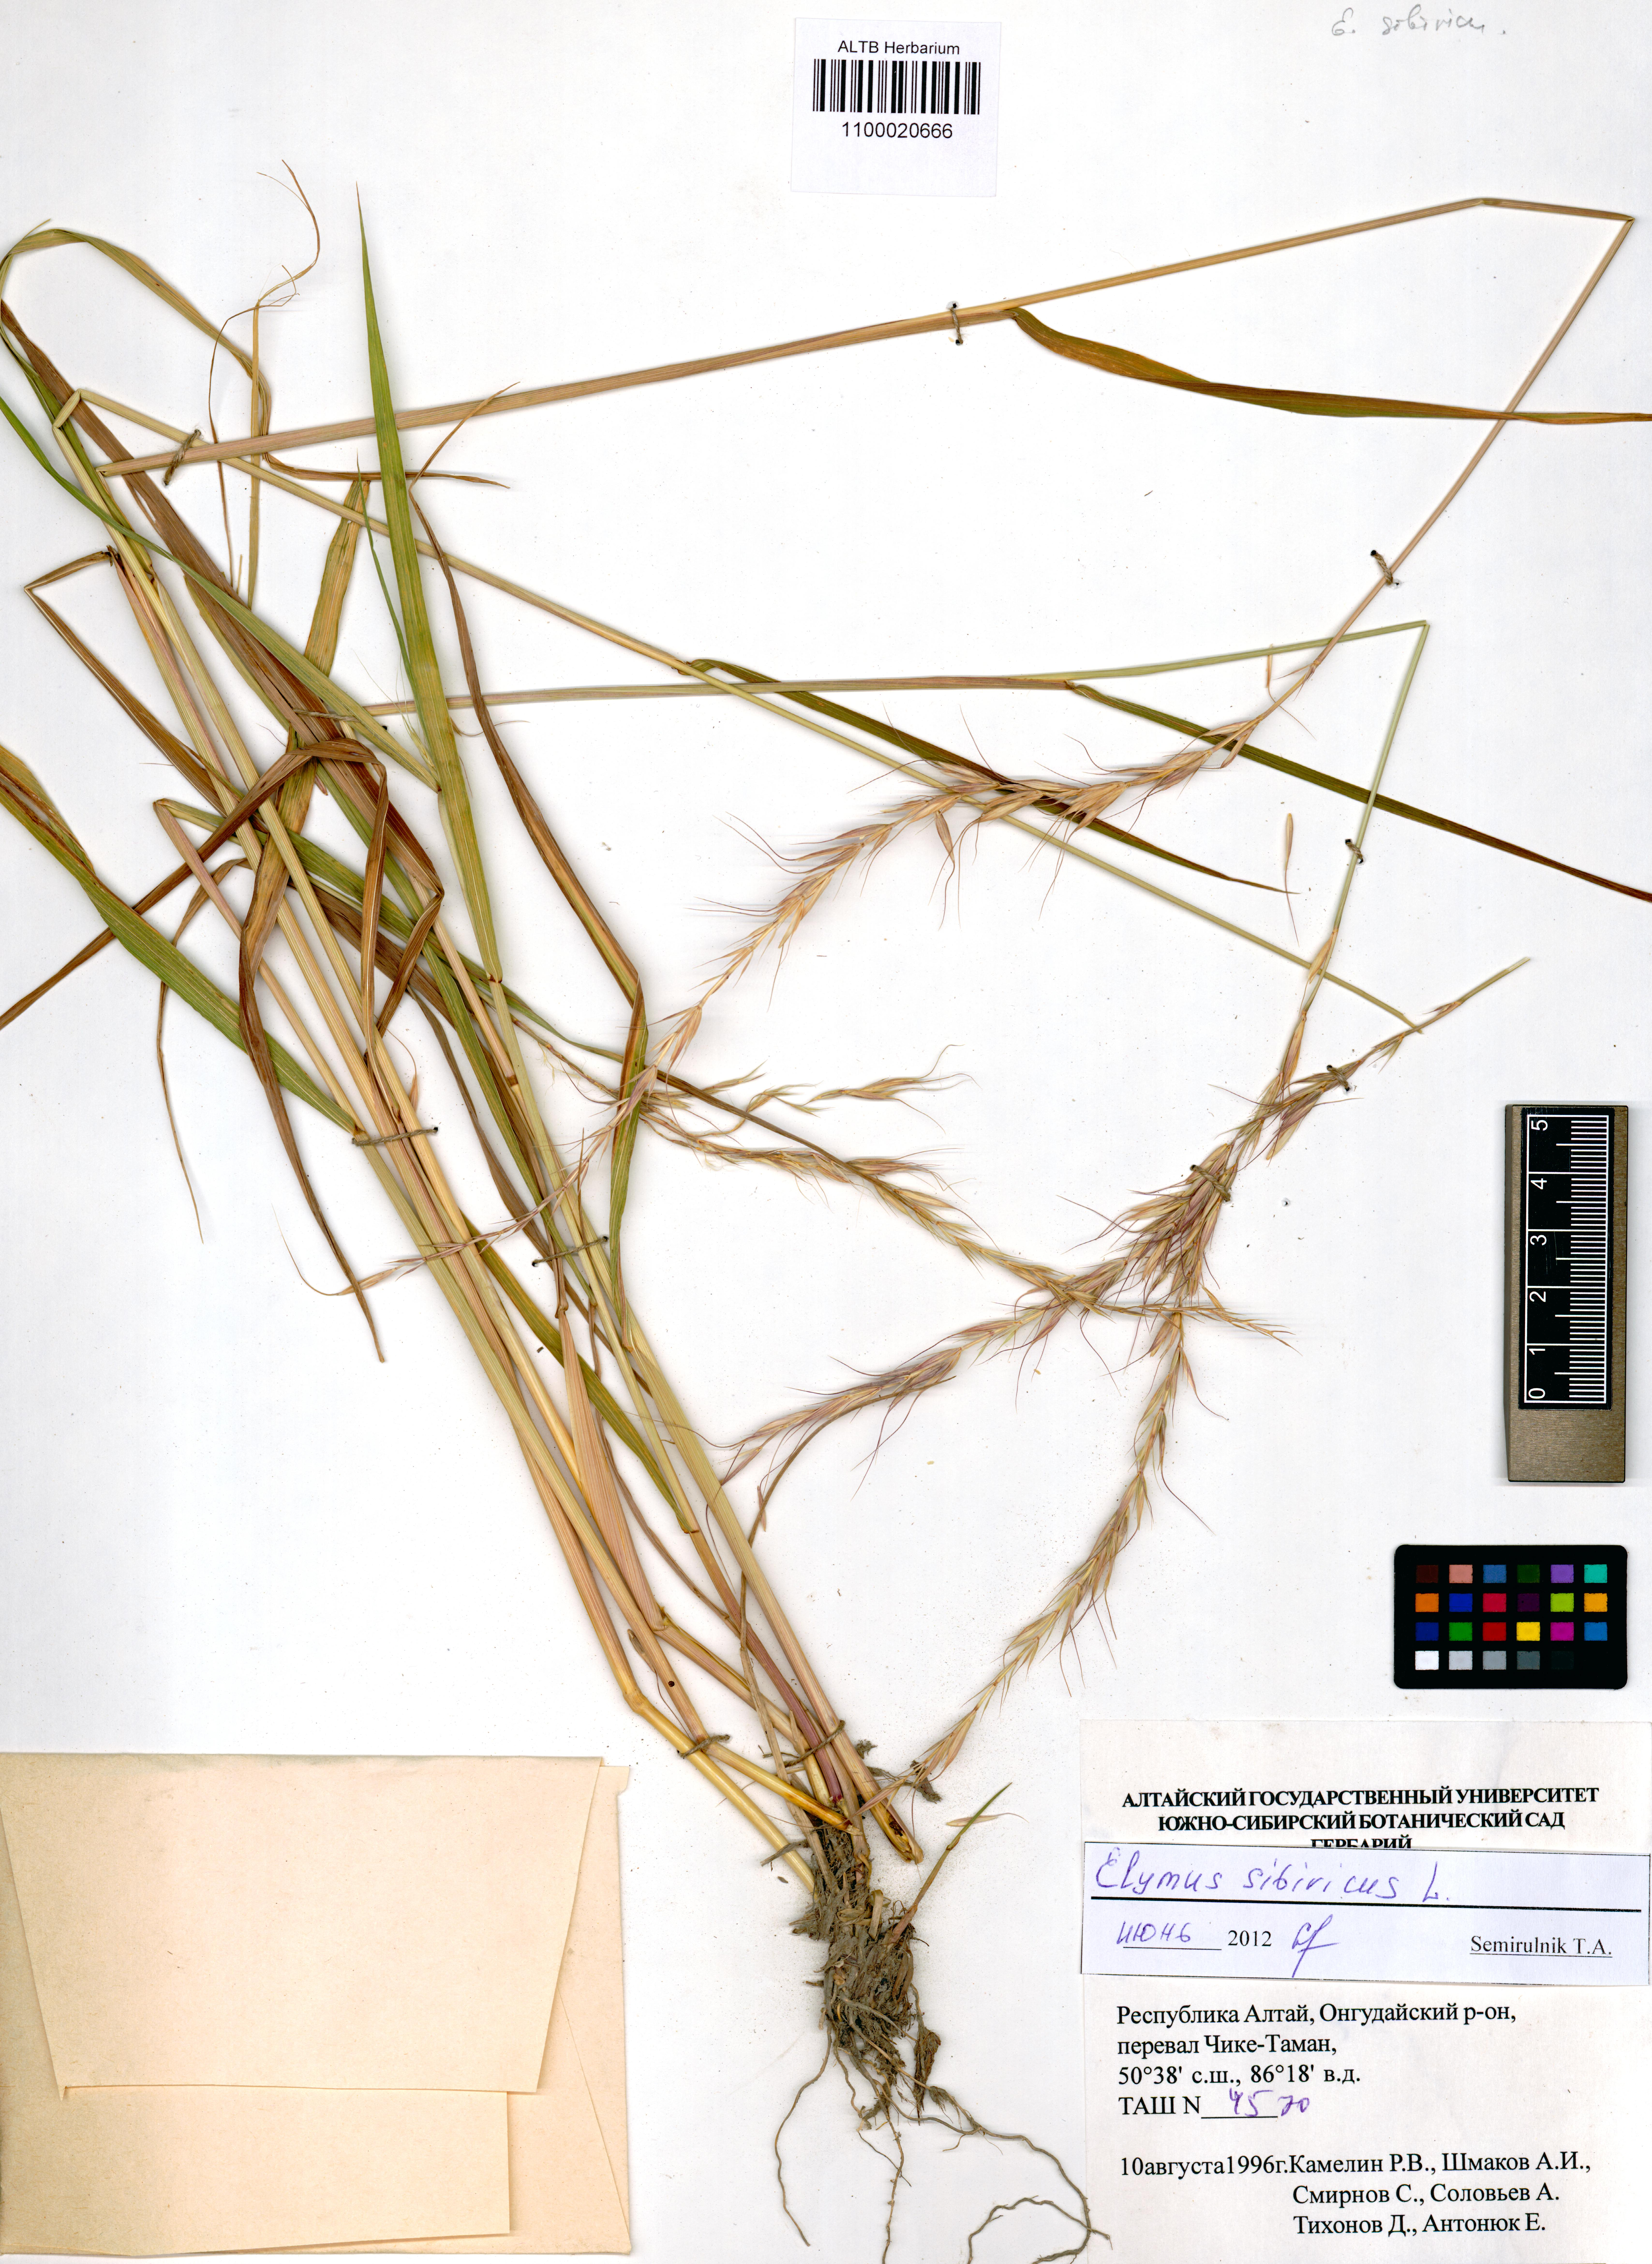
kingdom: Plantae
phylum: Tracheophyta
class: Liliopsida
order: Poales
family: Poaceae
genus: Elymus
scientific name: Elymus sibiricus
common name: Siberian wildrye
